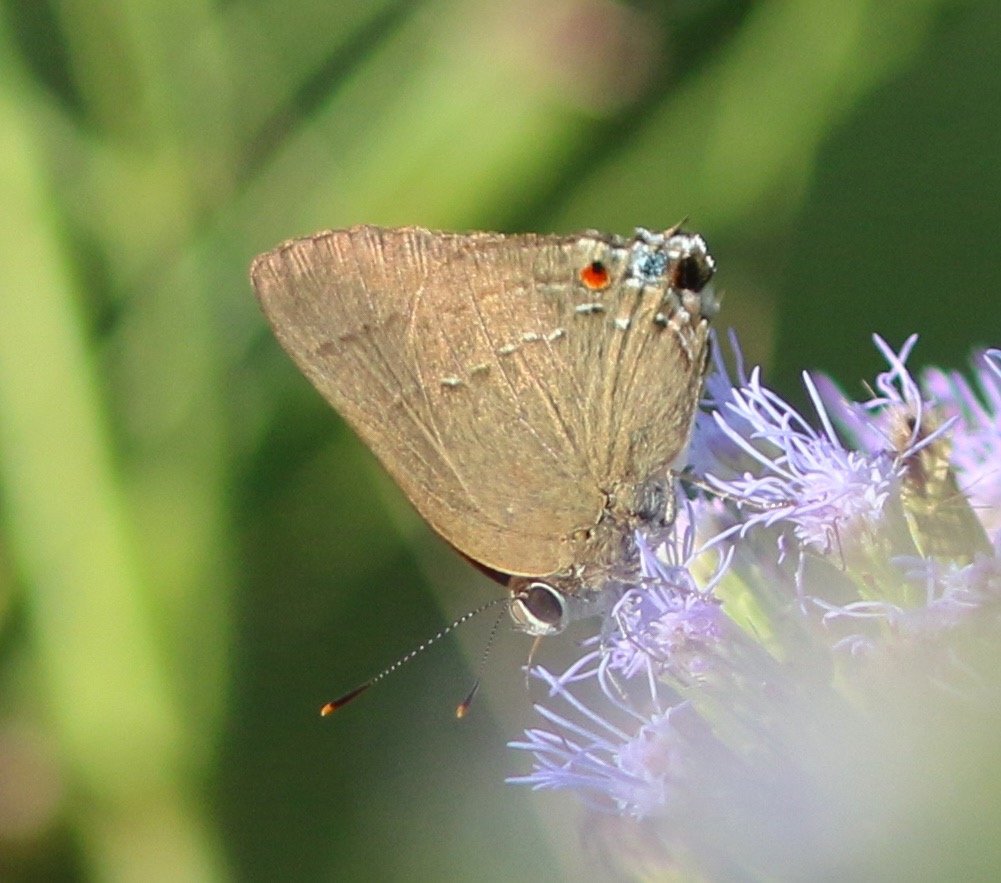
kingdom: Animalia
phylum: Arthropoda
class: Insecta
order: Lepidoptera
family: Lycaenidae
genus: Thecla
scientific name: Thecla strophius
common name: Strophius Hairstreak
